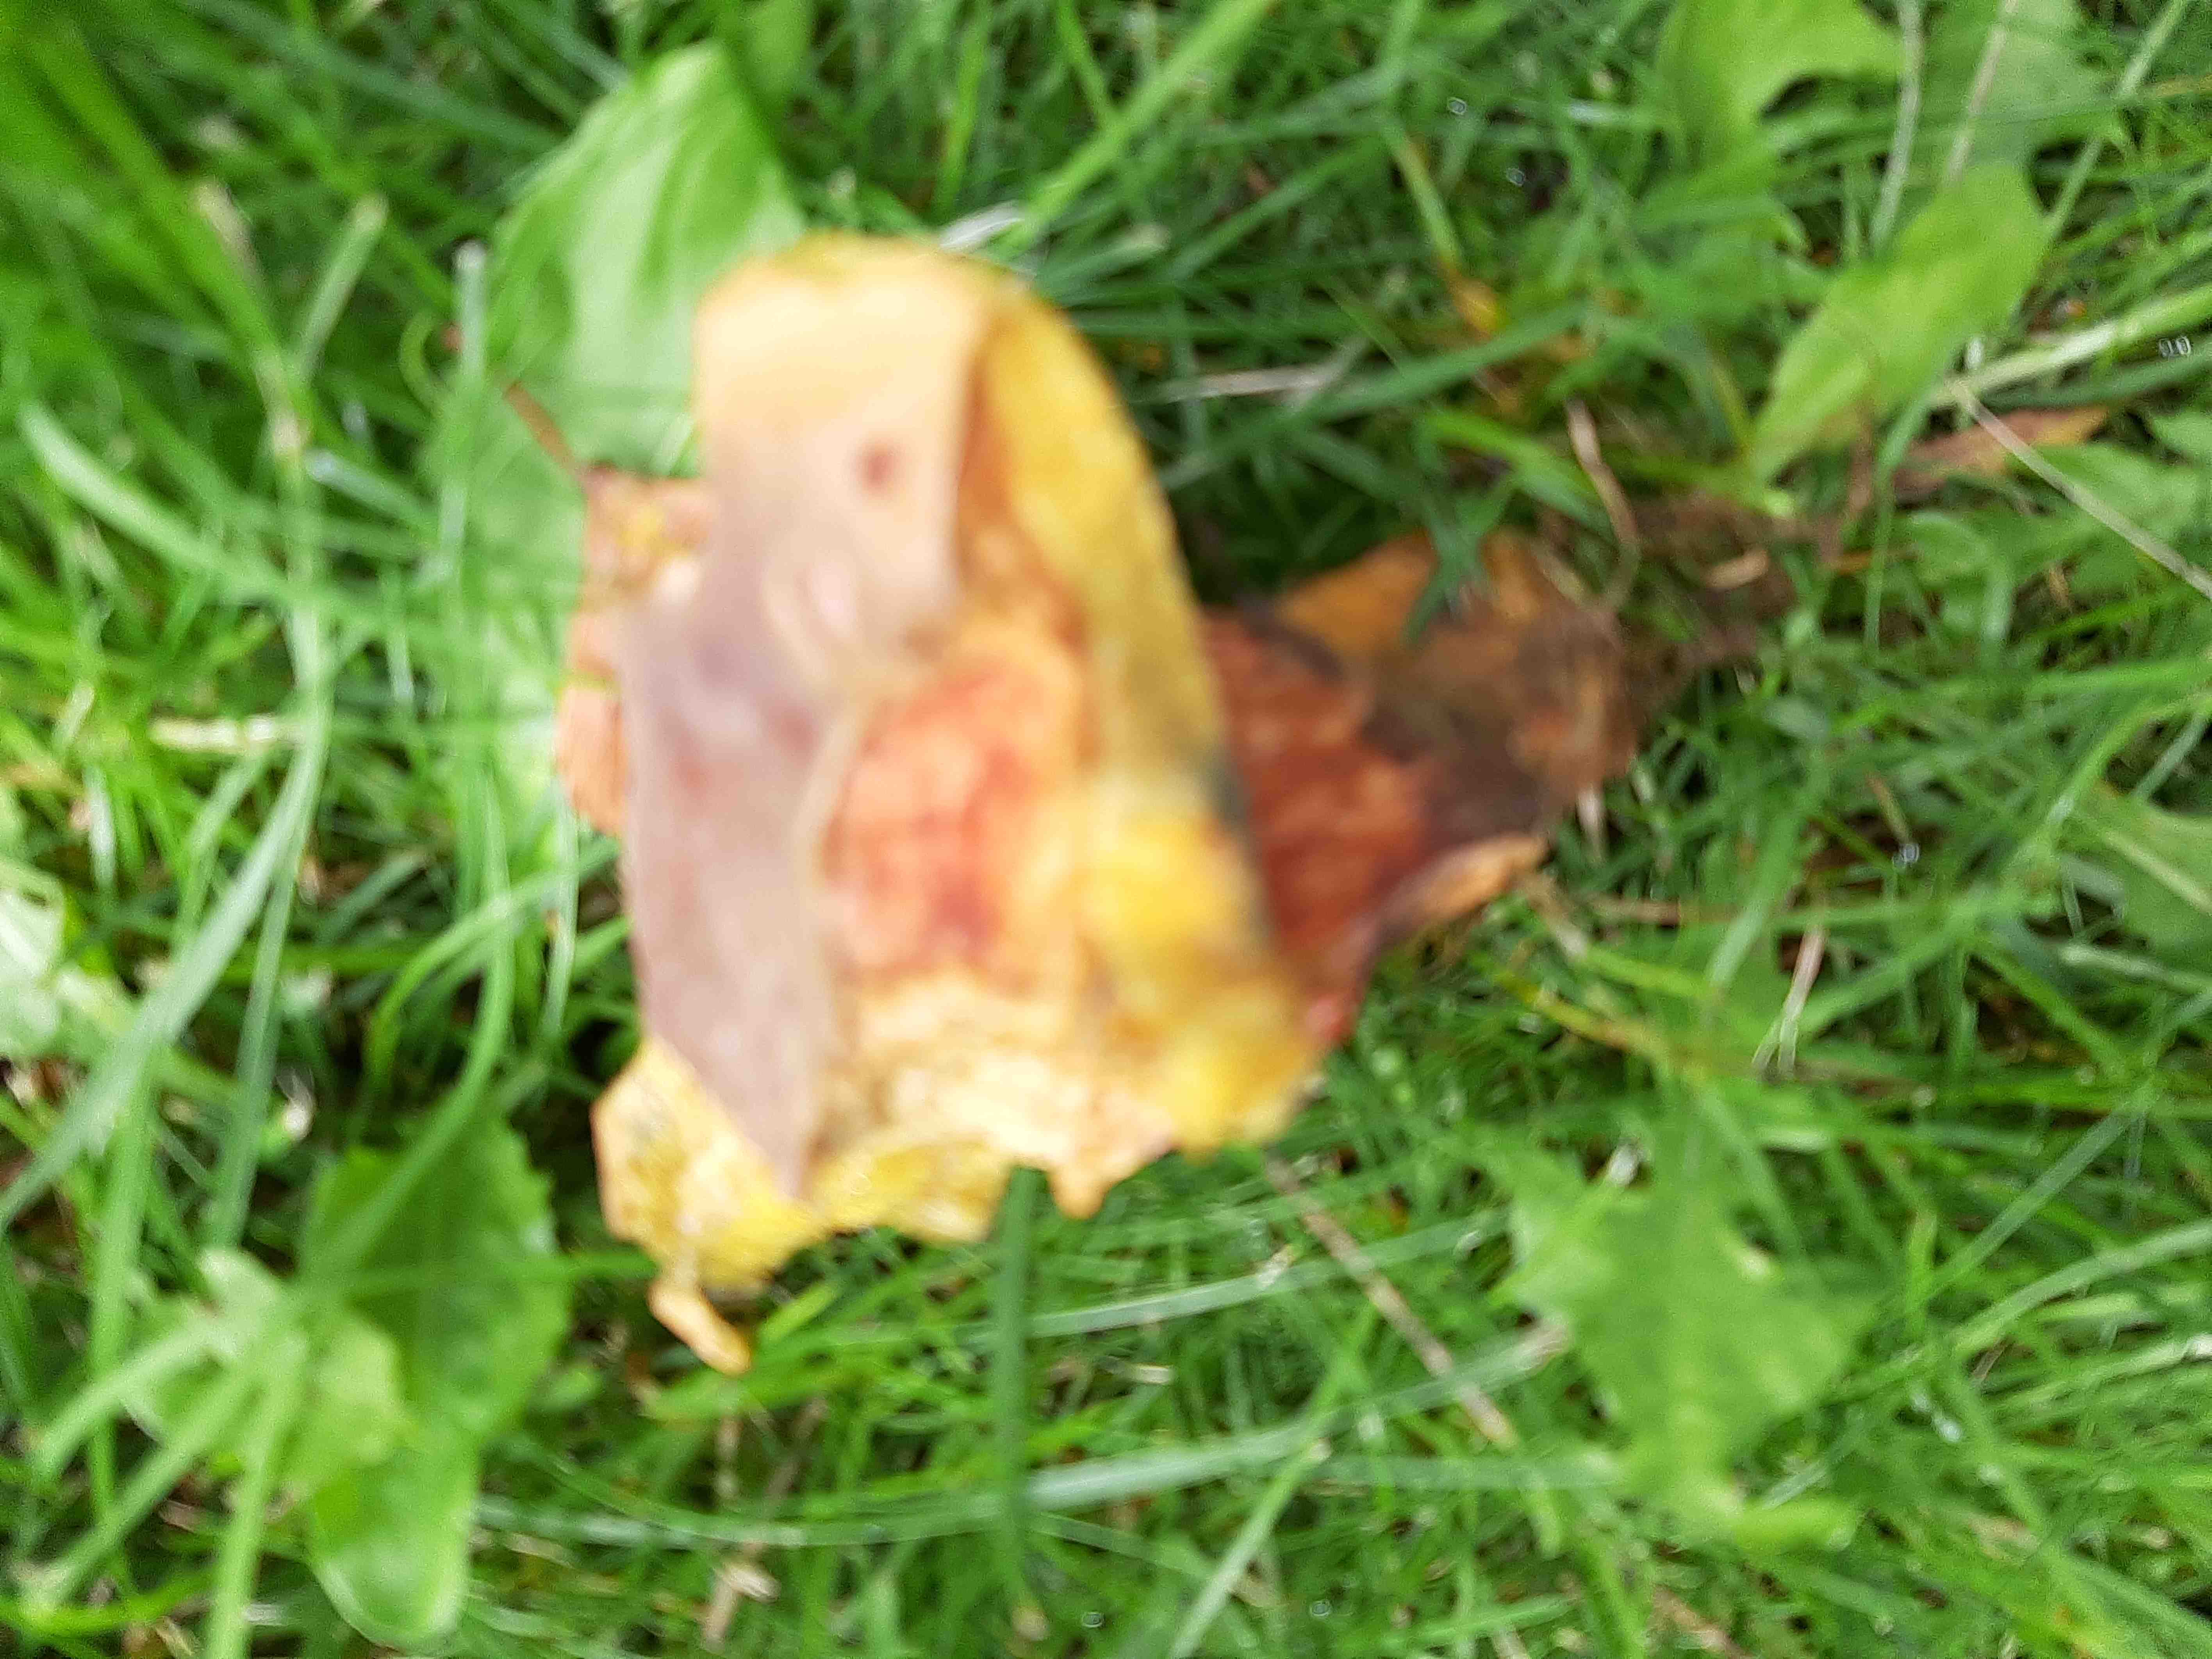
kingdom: Fungi
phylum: Basidiomycota
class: Agaricomycetes
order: Boletales
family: Boletaceae
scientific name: Boletaceae
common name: rørhatfamilien
